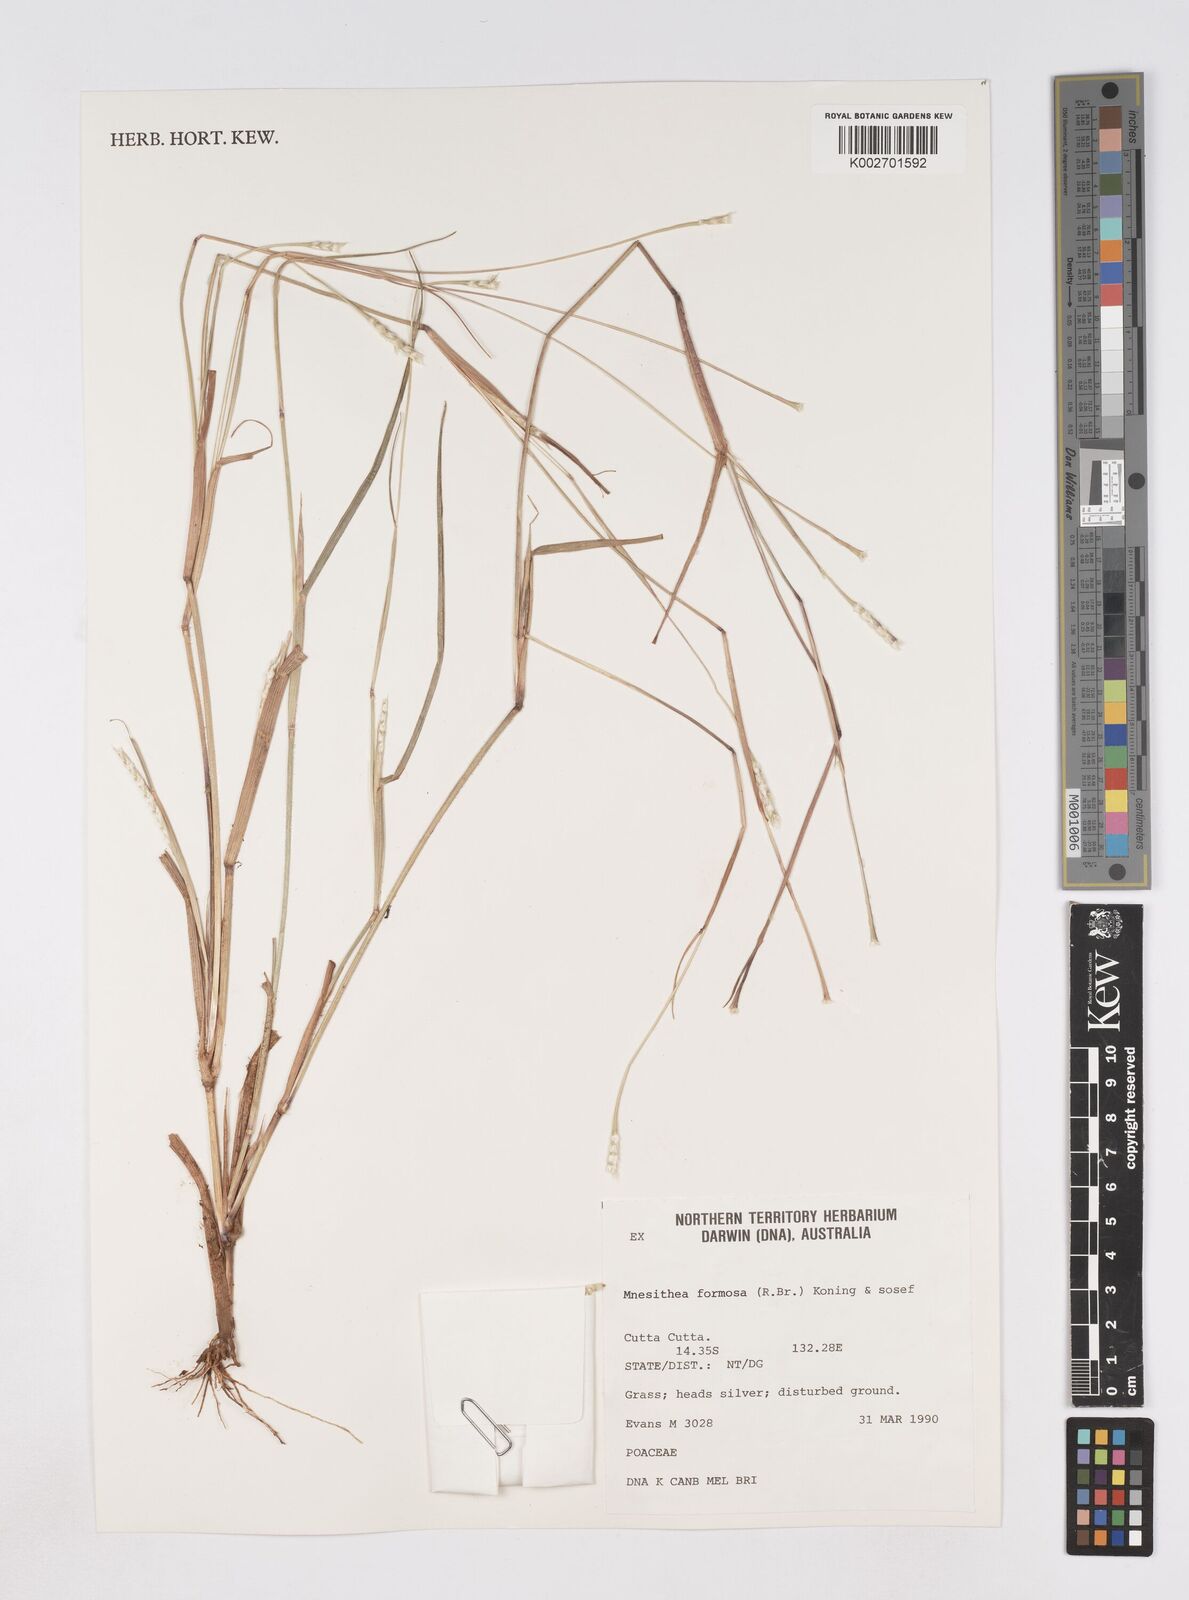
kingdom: Plantae
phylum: Tracheophyta
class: Liliopsida
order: Poales
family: Poaceae
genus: Heteropholis
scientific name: Heteropholis
